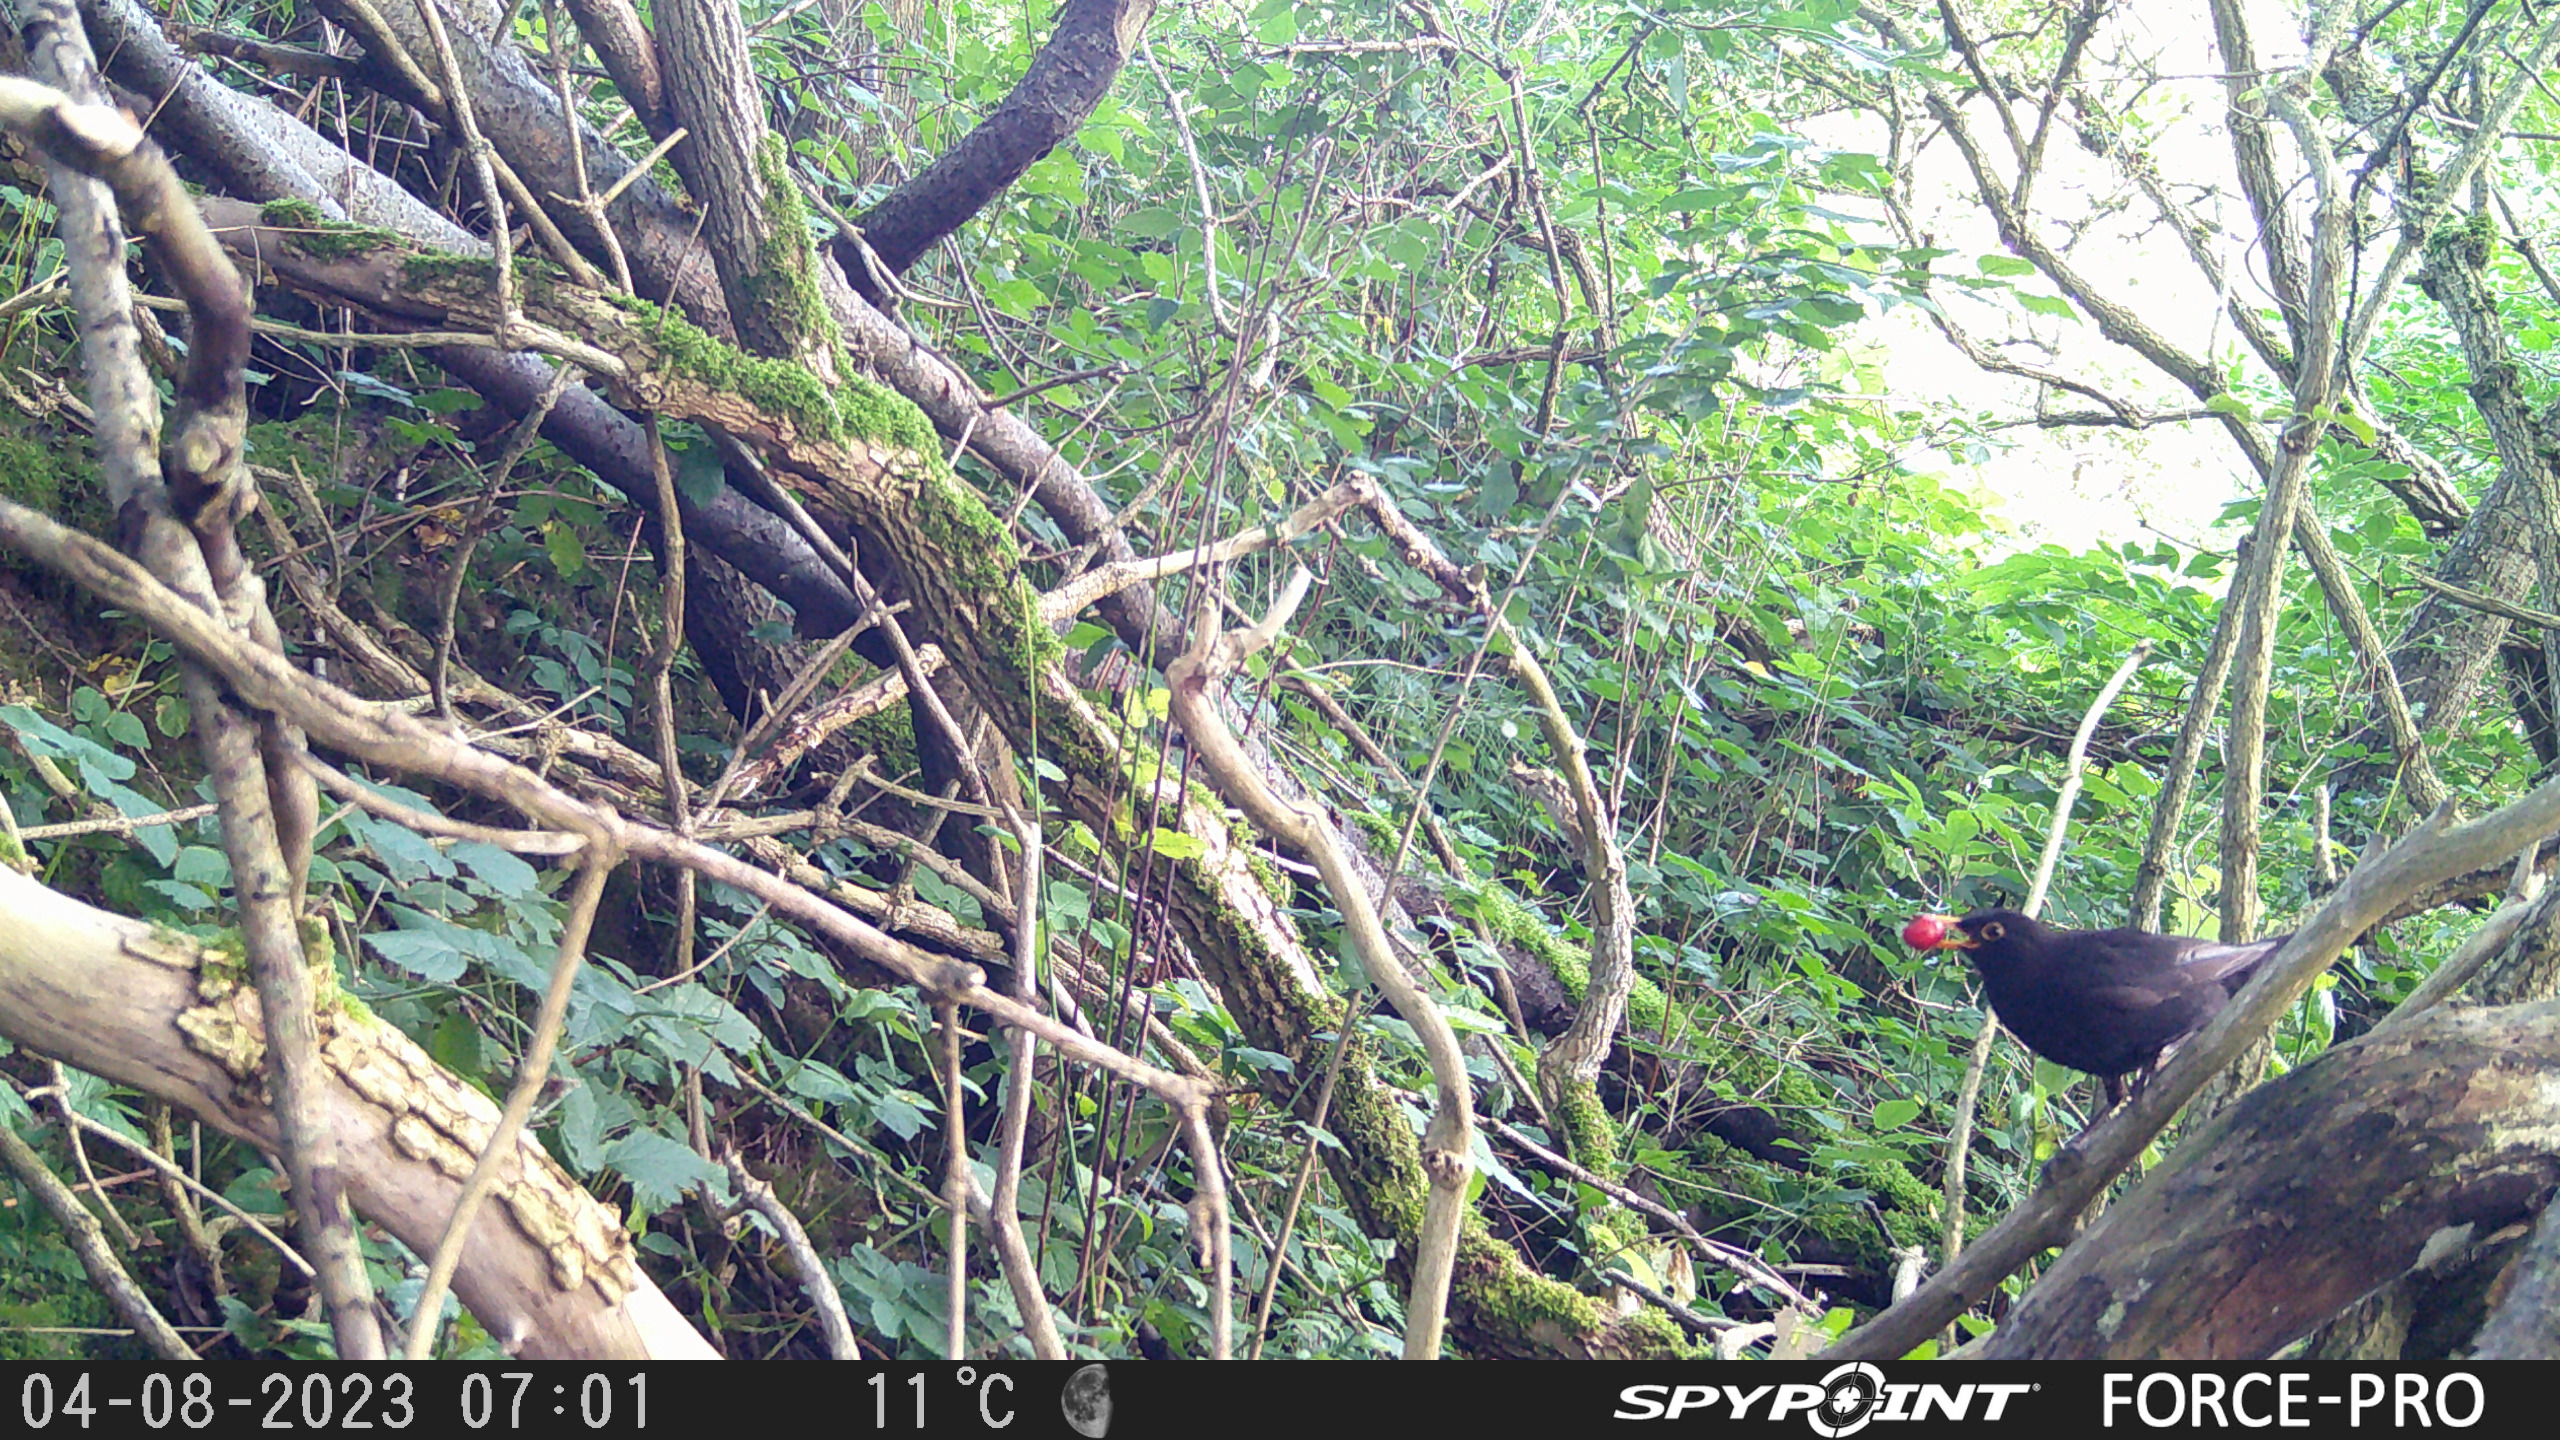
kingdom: Animalia
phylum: Chordata
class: Aves
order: Passeriformes
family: Turdidae
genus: Turdus
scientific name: Turdus merula
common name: Solsort
